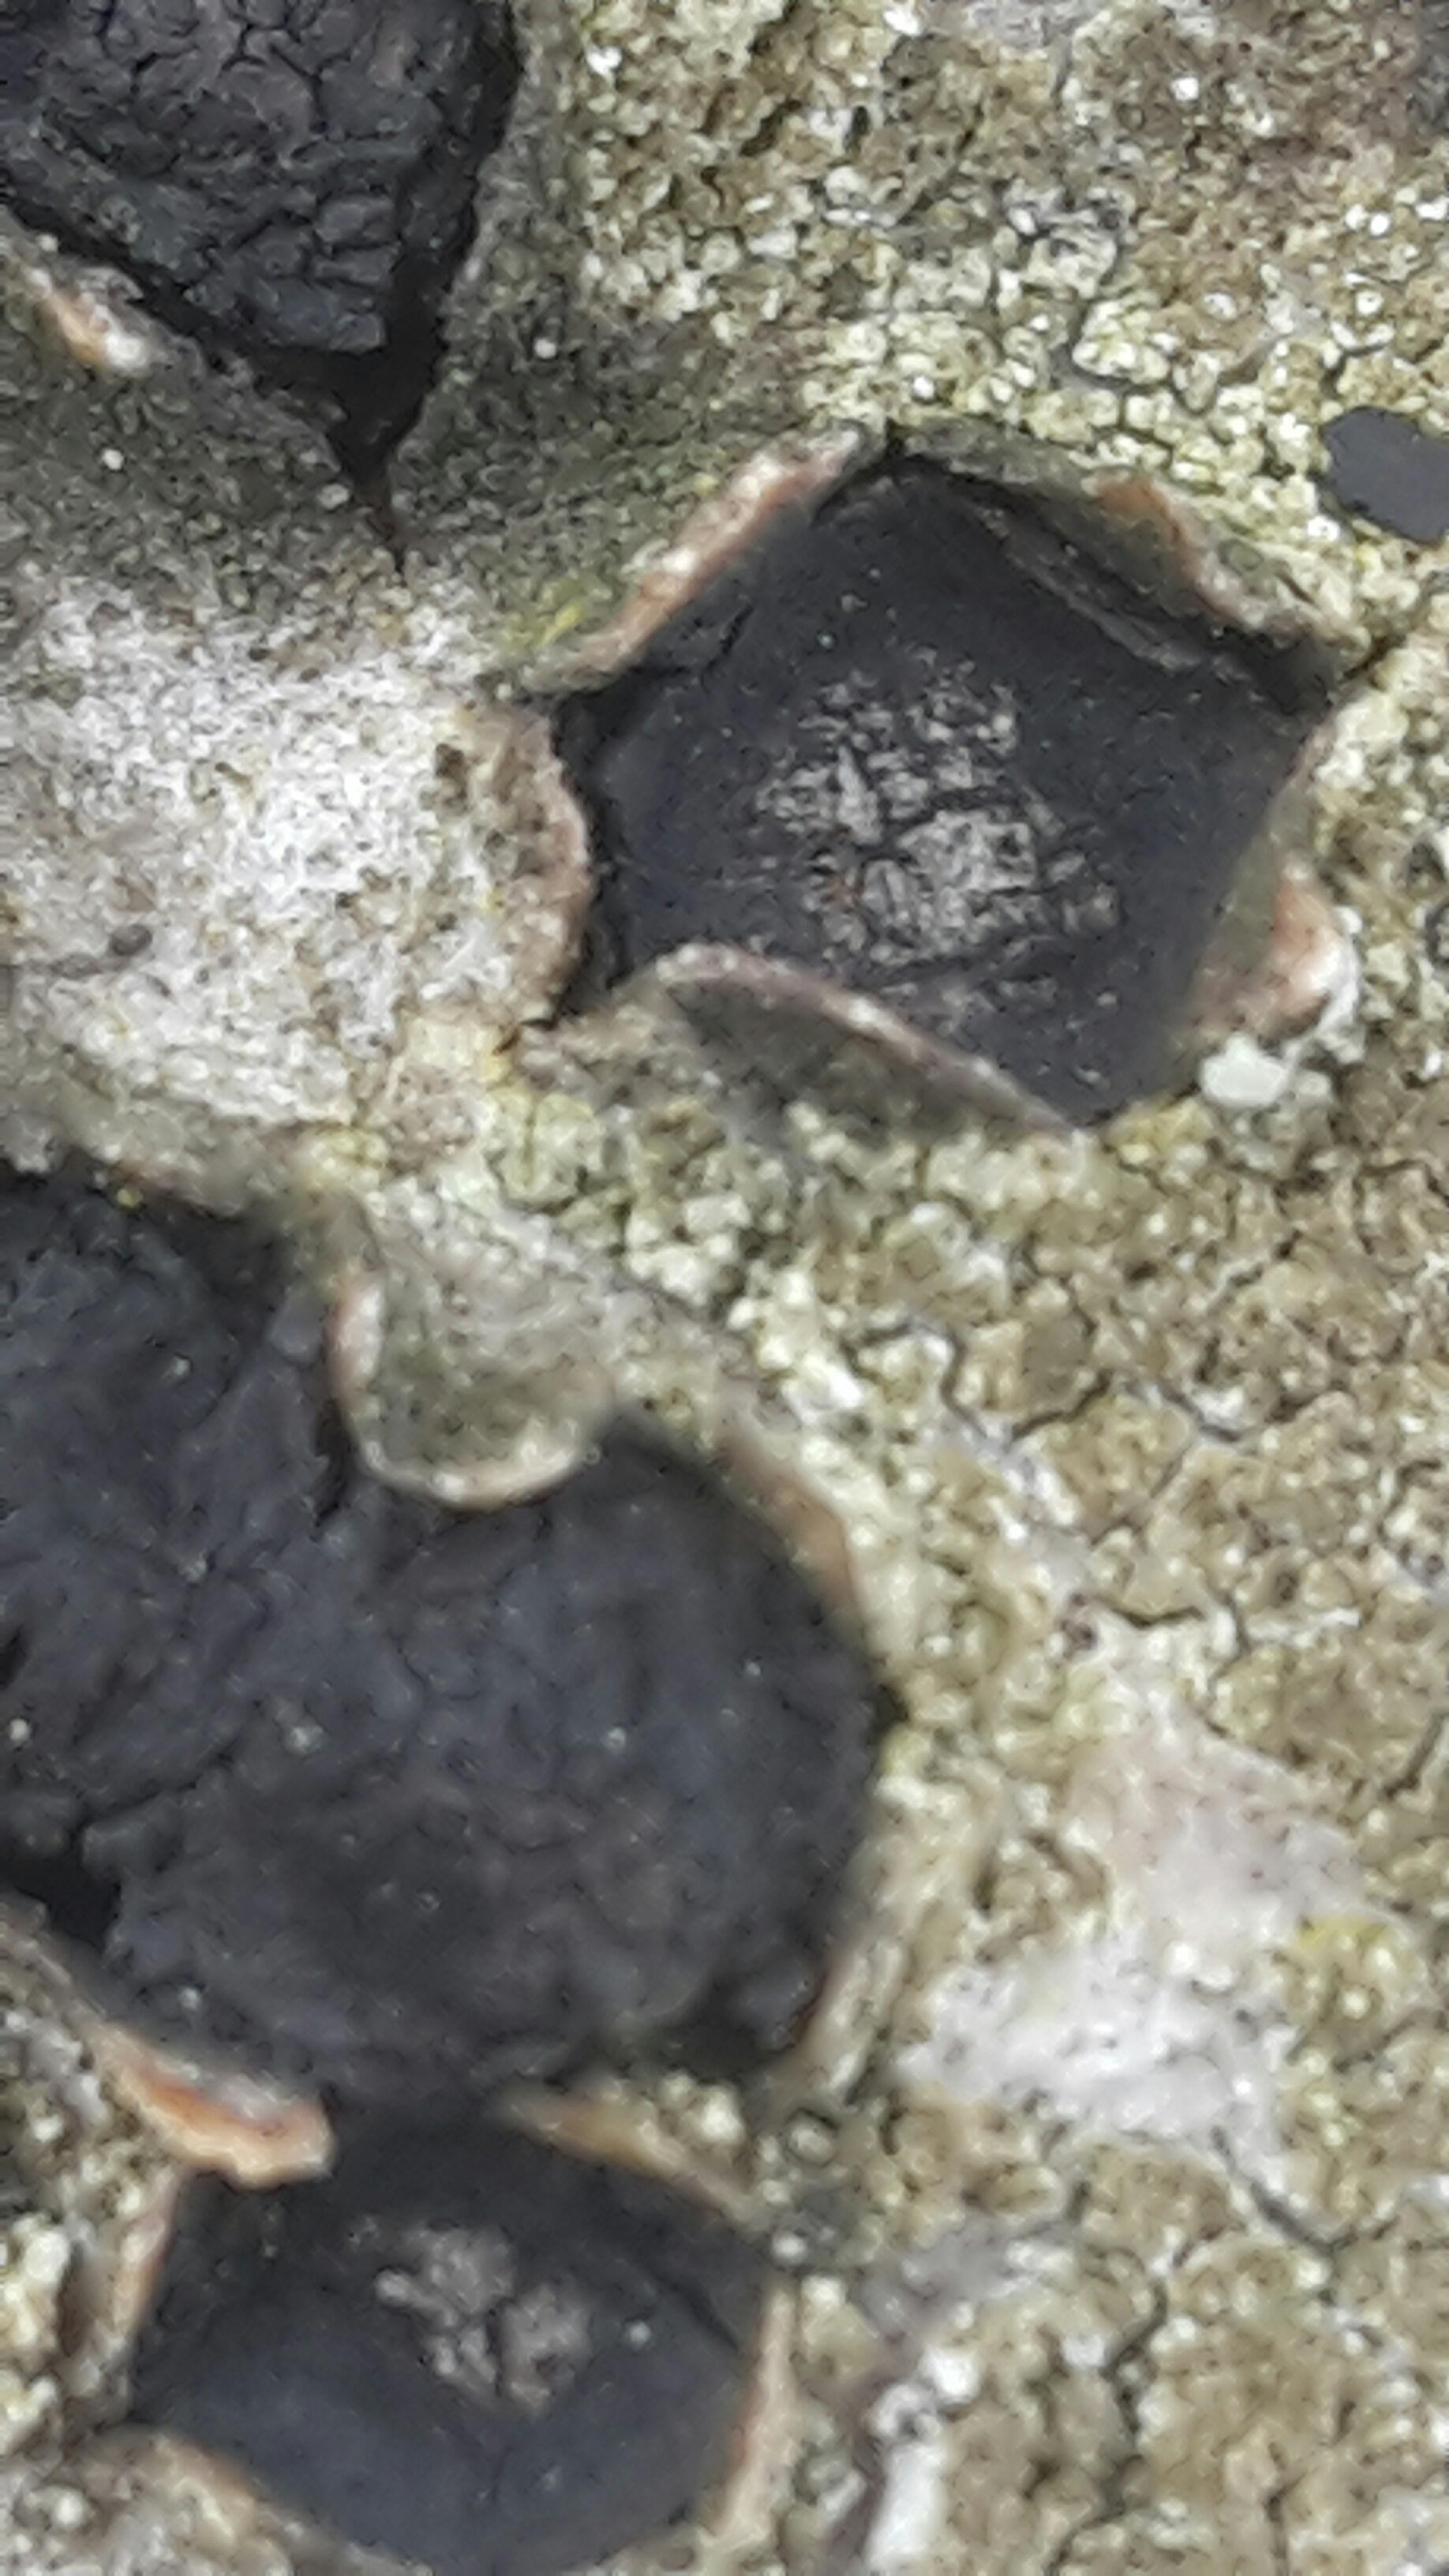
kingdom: Fungi
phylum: Ascomycota
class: Sordariomycetes
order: Xylariales
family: Diatrypaceae
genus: Diatrypella
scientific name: Diatrypella quercina
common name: ege-kulskorpe
